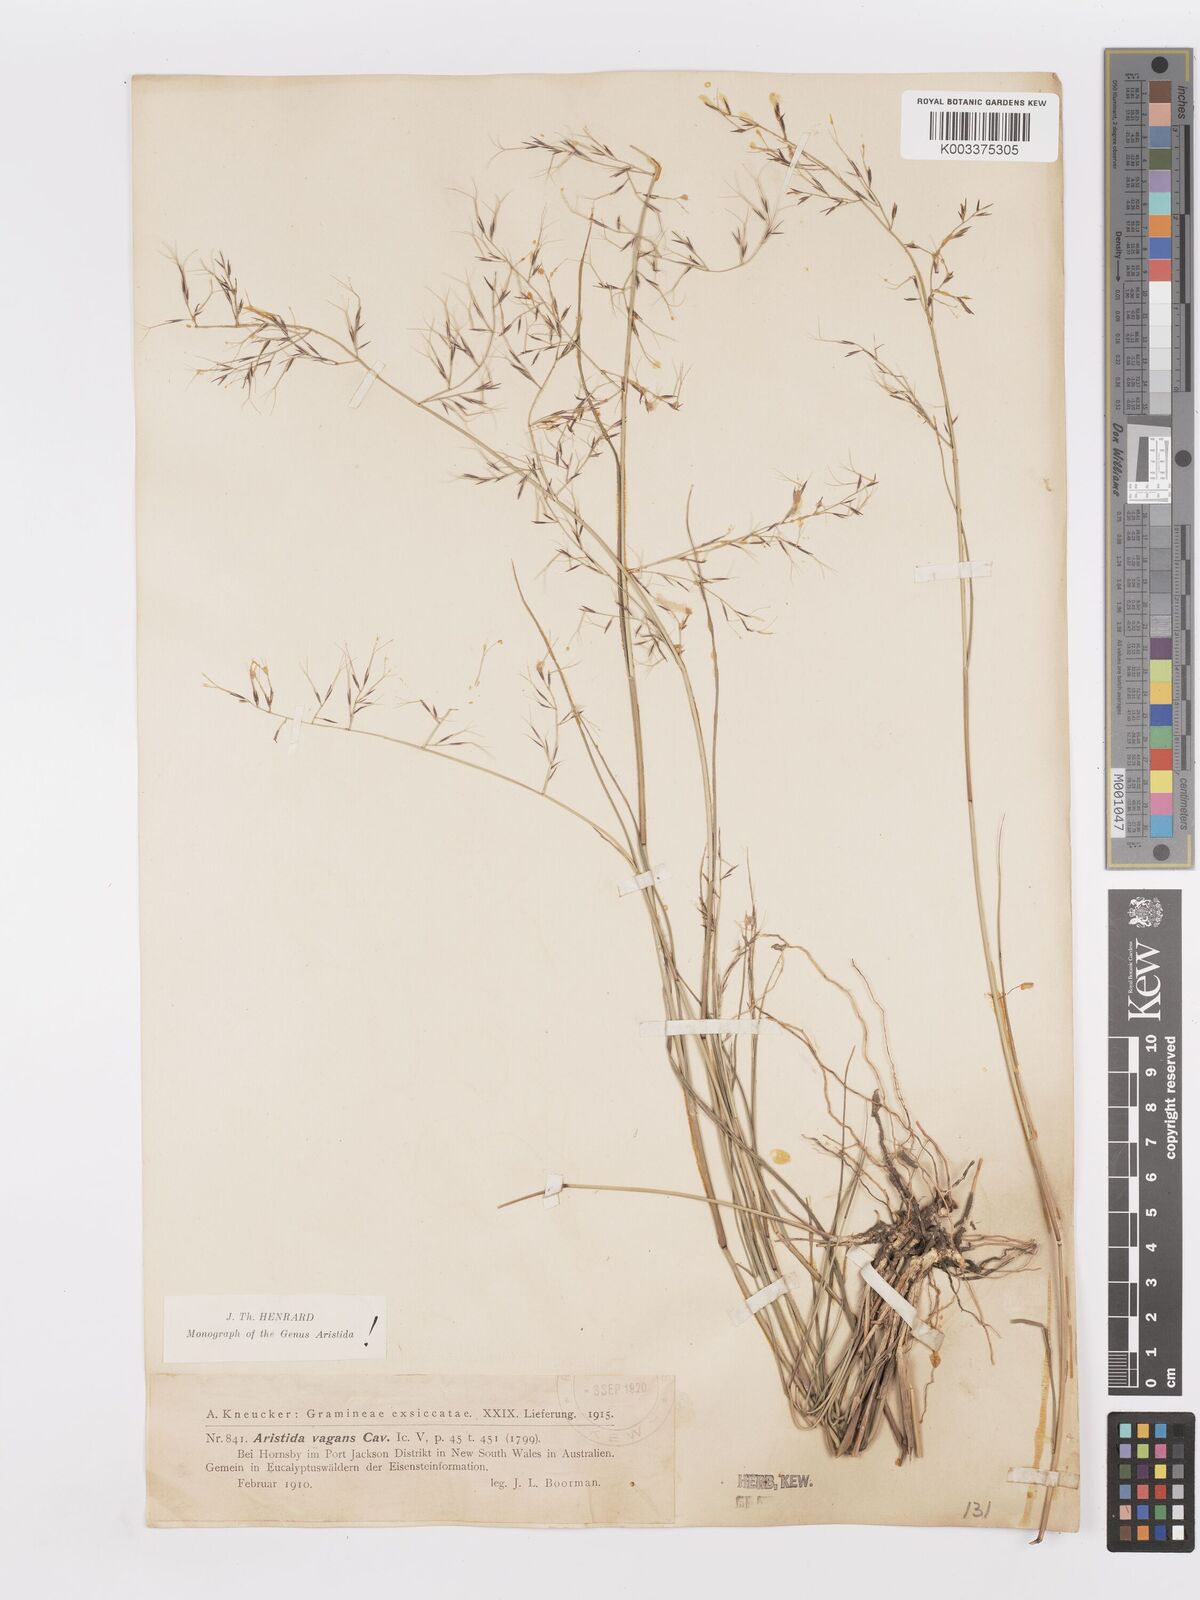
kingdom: Plantae
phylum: Tracheophyta
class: Liliopsida
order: Poales
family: Poaceae
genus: Aristida
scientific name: Aristida vagans
